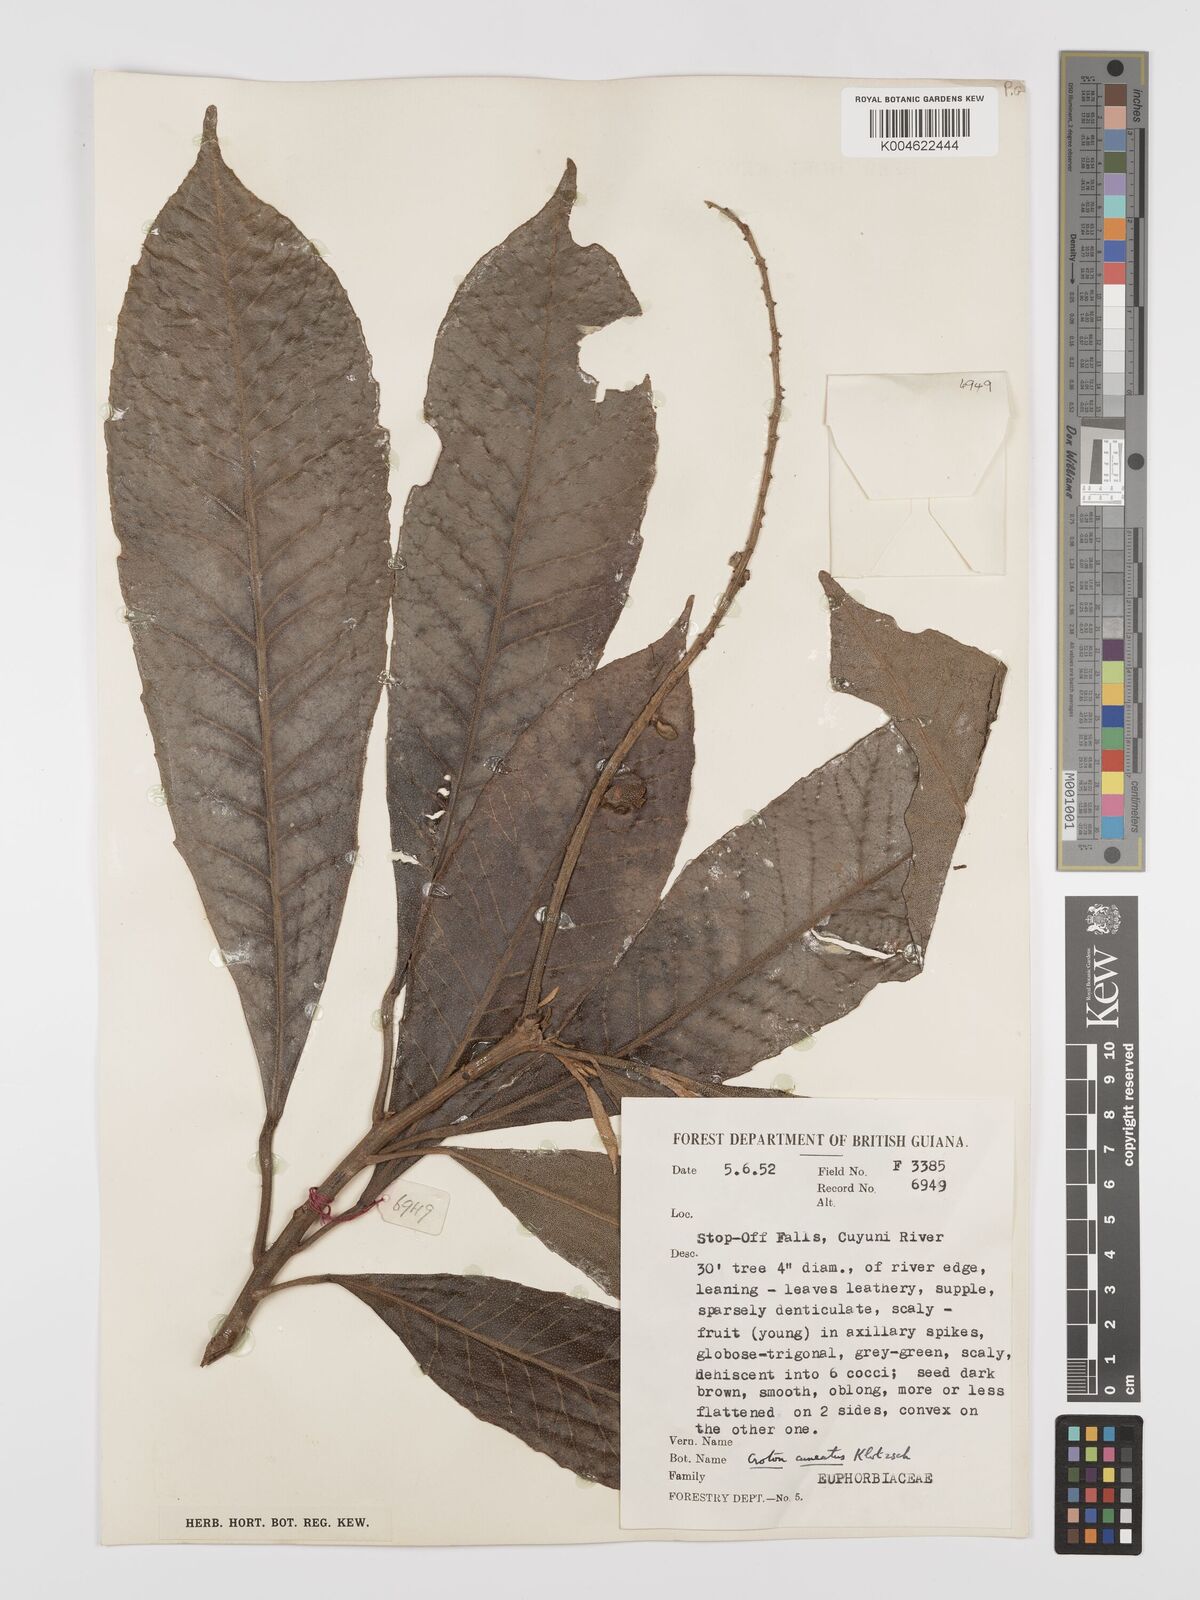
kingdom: Plantae
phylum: Tracheophyta
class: Magnoliopsida
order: Malpighiales
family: Euphorbiaceae
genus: Croton
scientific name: Croton
